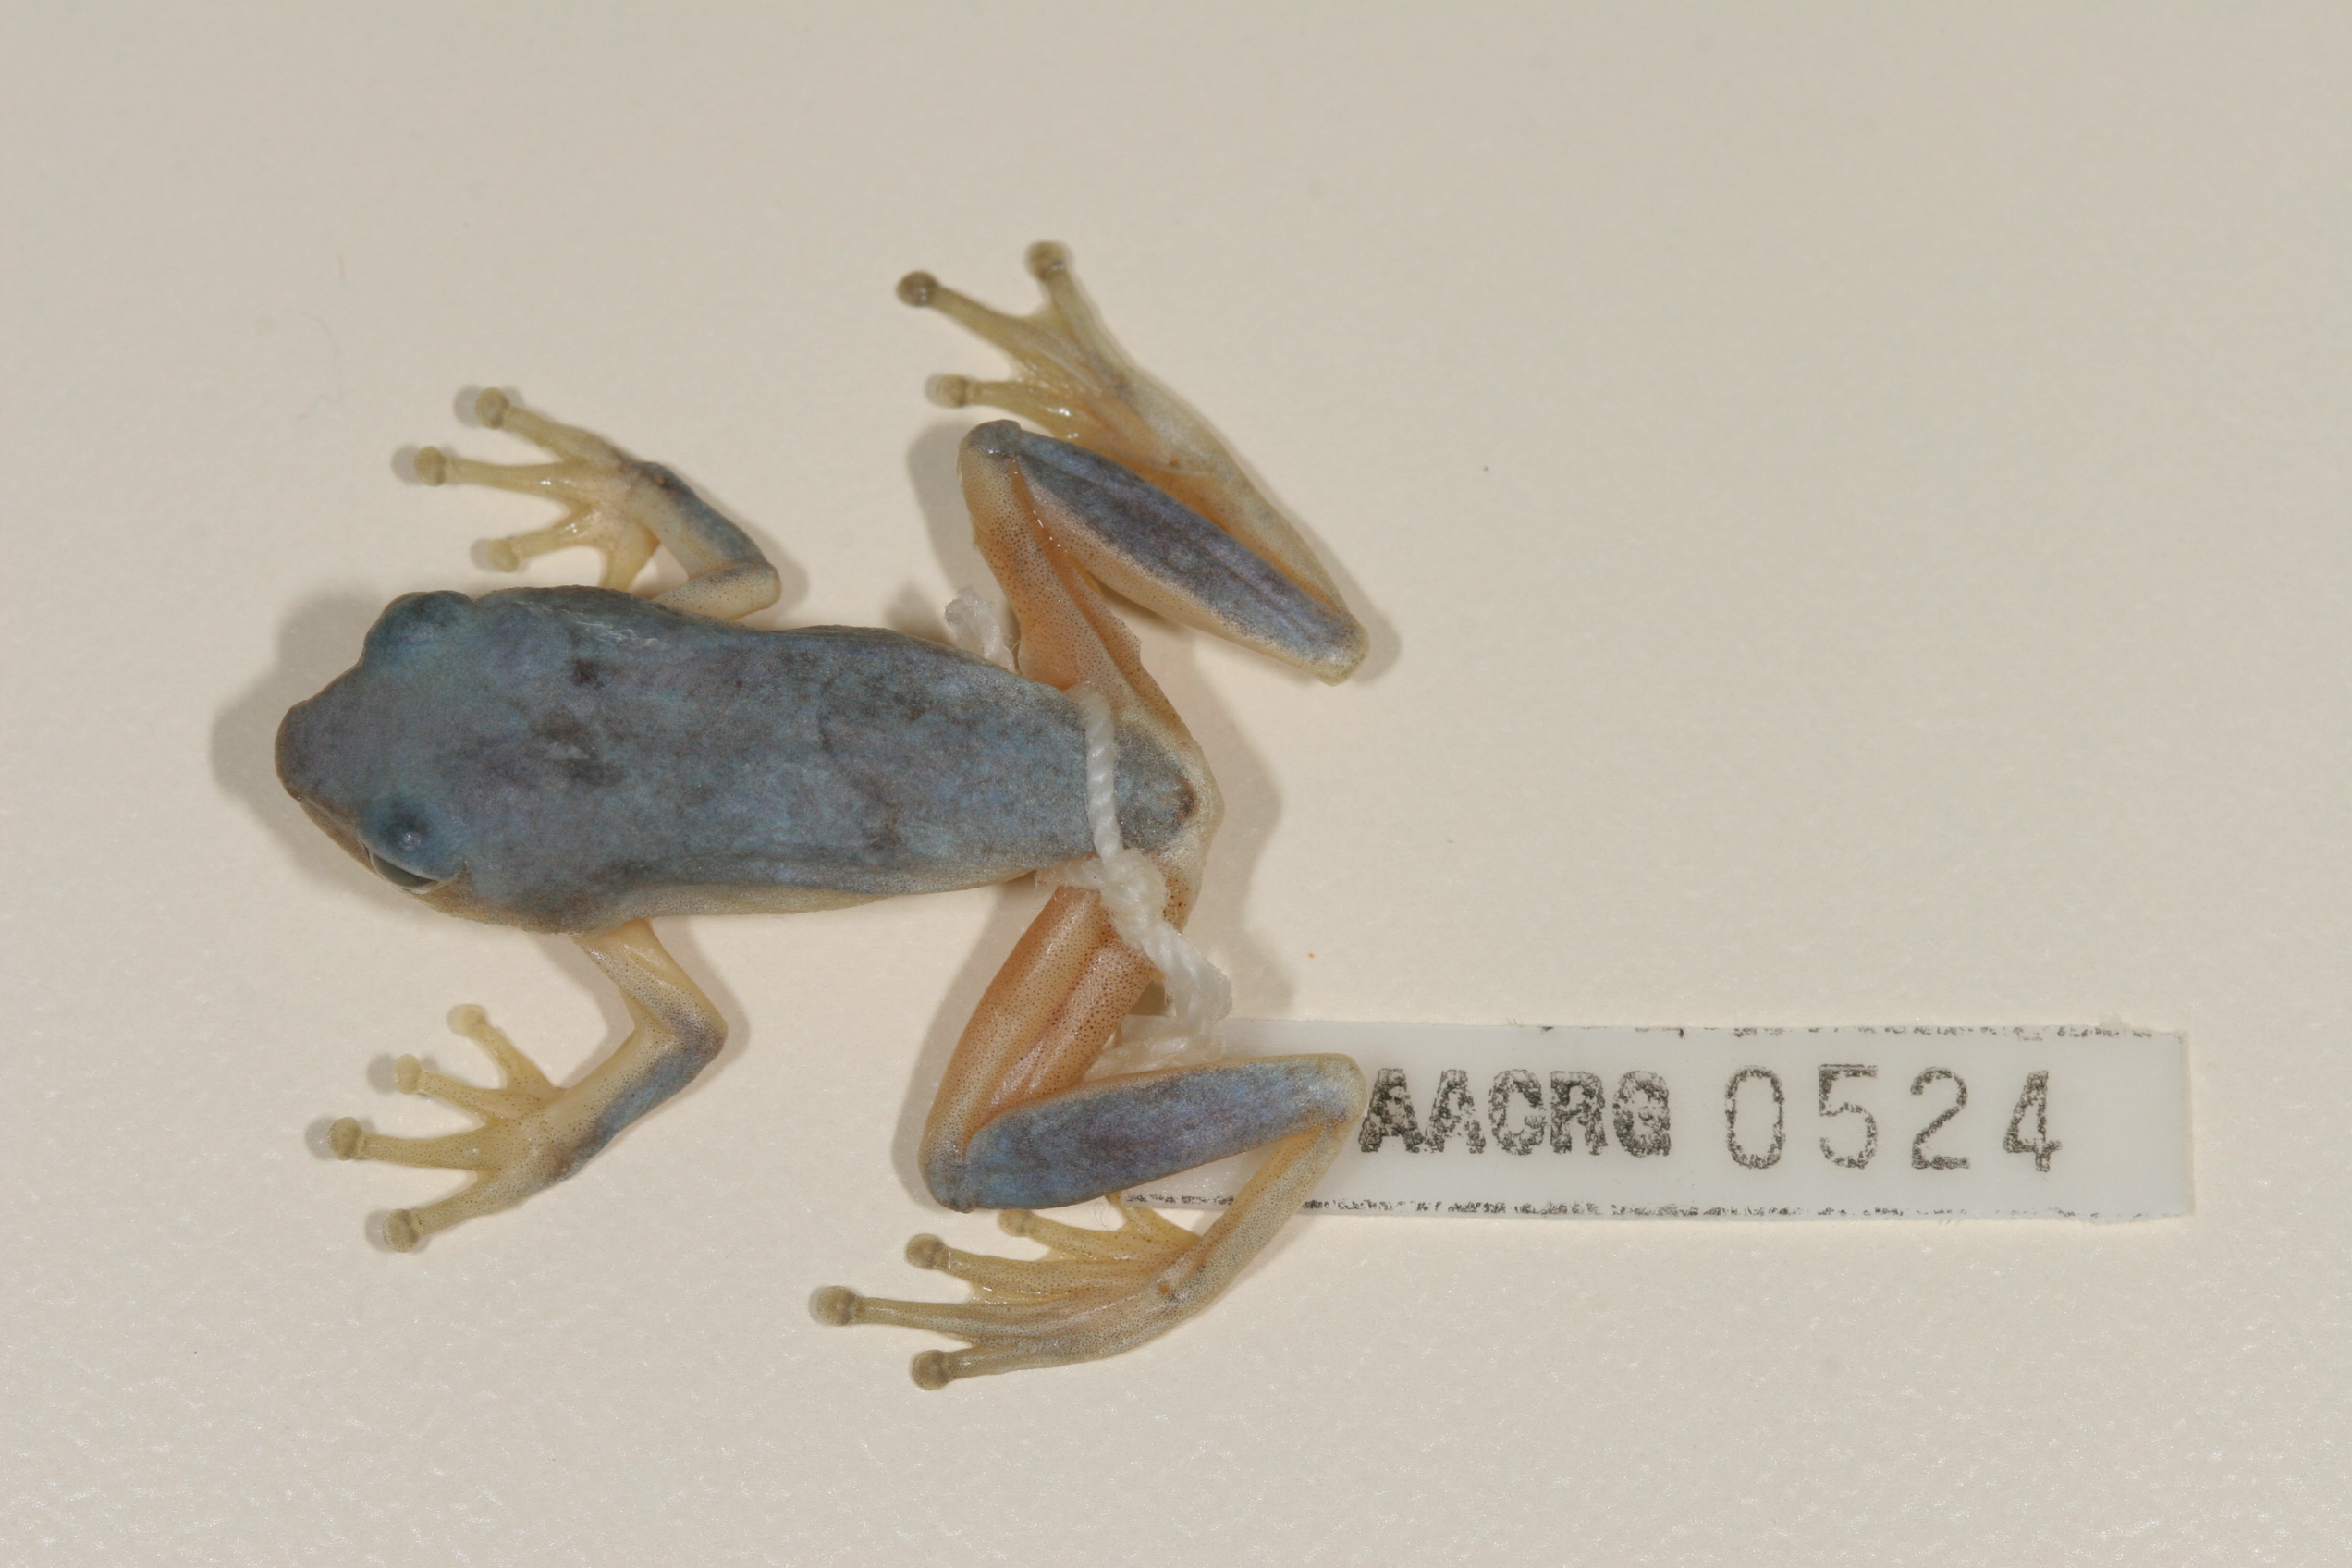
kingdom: Animalia
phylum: Chordata
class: Amphibia
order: Anura
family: Hyperoliidae
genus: Hyperolius
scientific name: Hyperolius tuberilinguis
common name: Tinker reed frog
